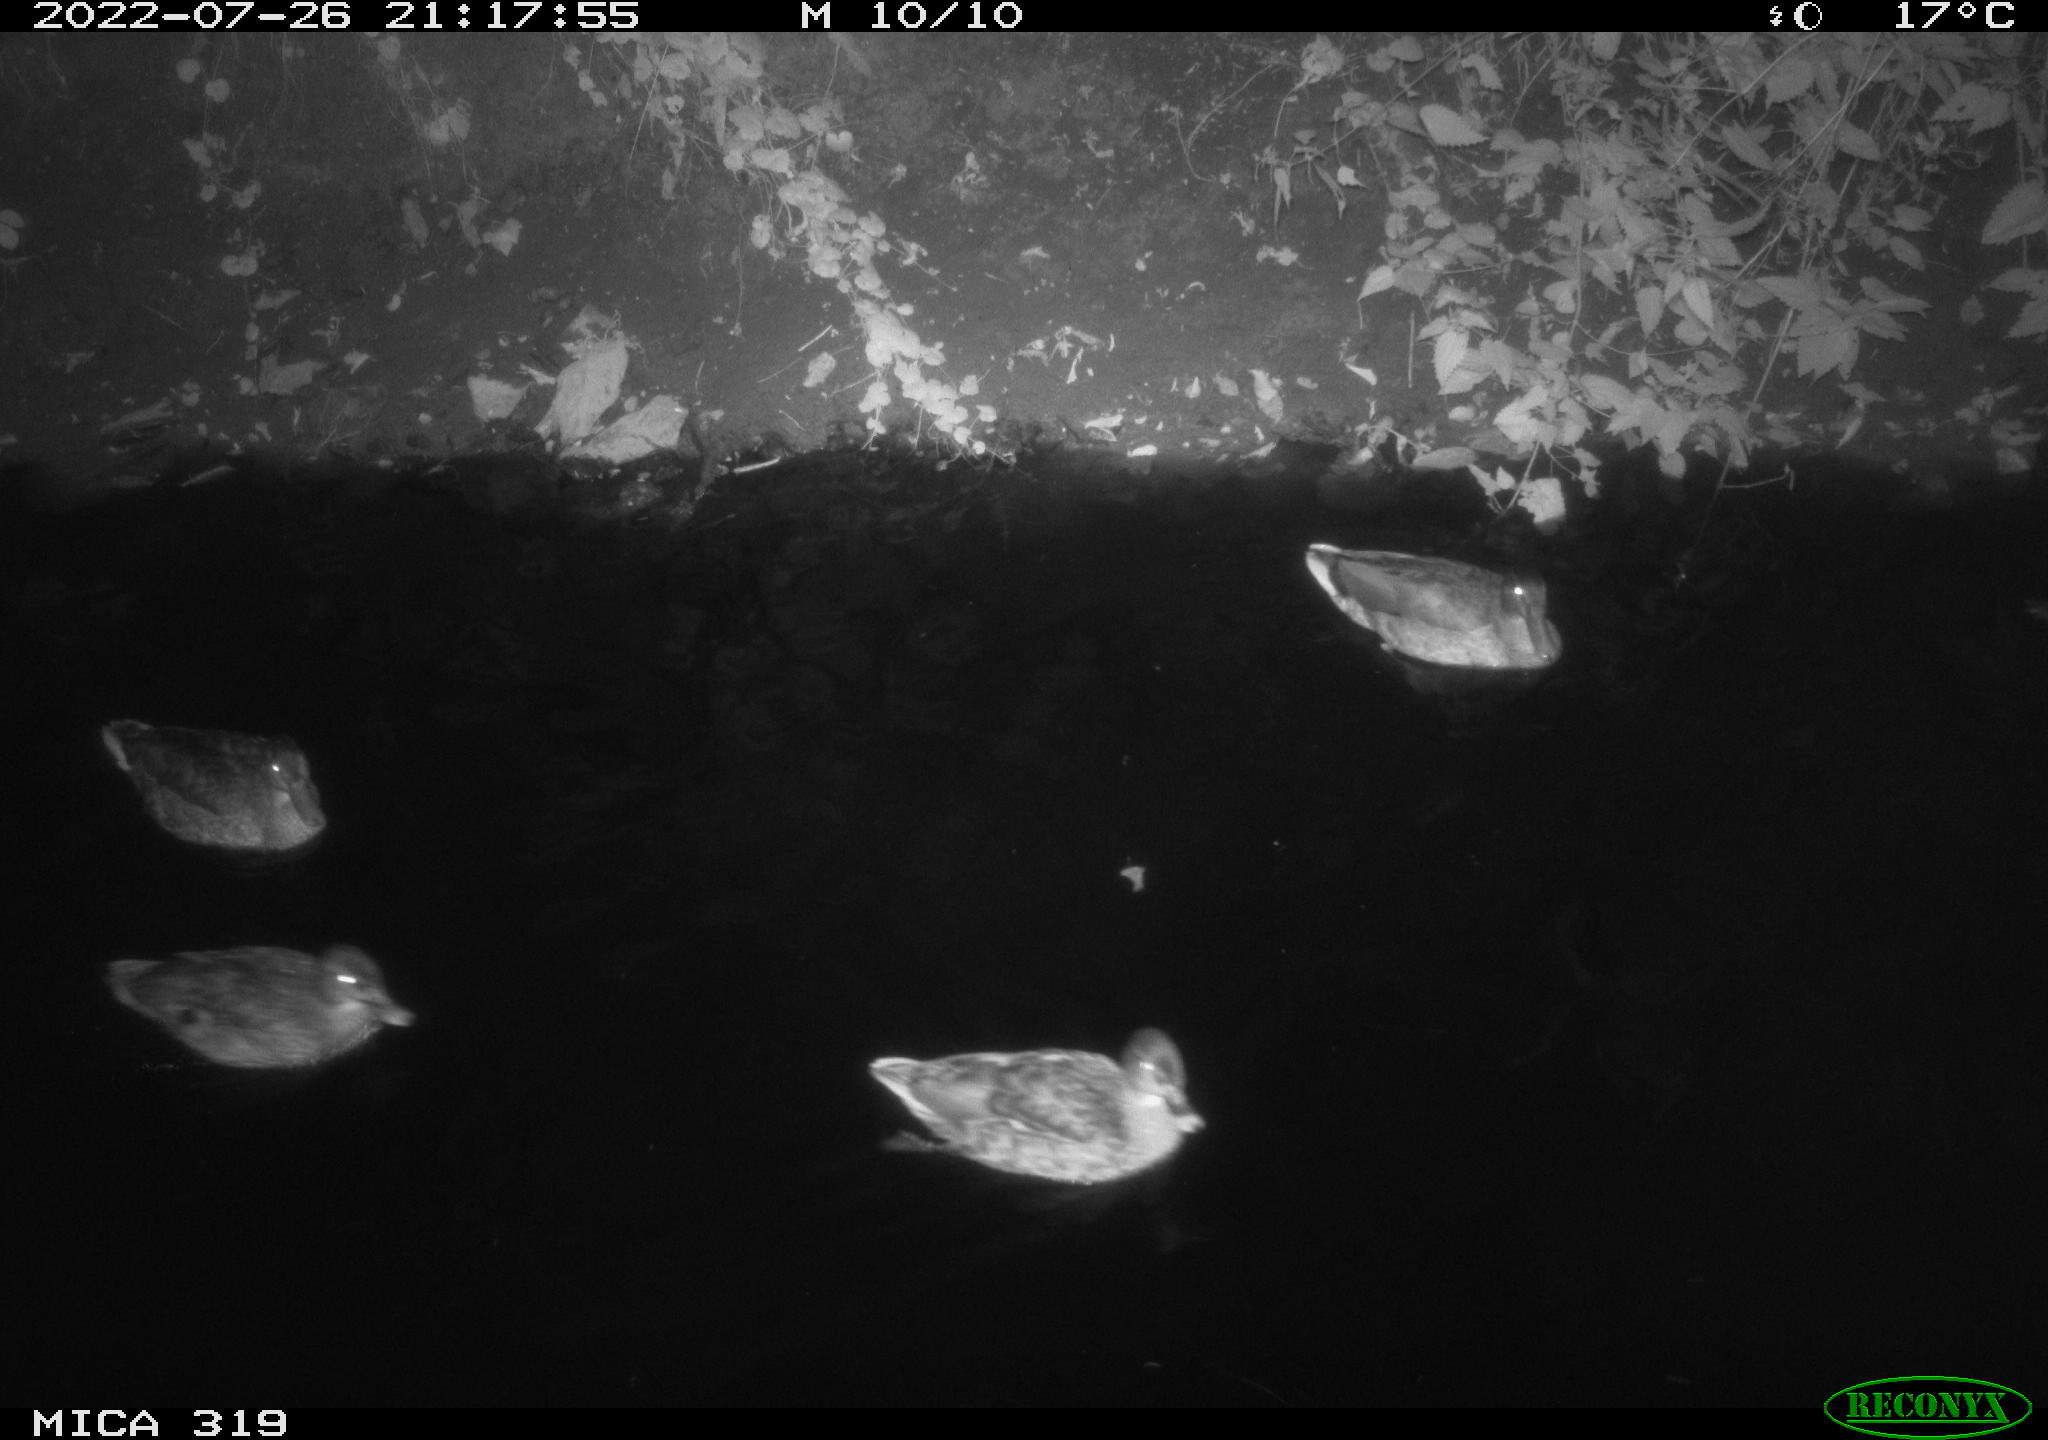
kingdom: Animalia
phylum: Chordata
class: Aves
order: Anseriformes
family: Anatidae
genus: Anas
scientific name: Anas
